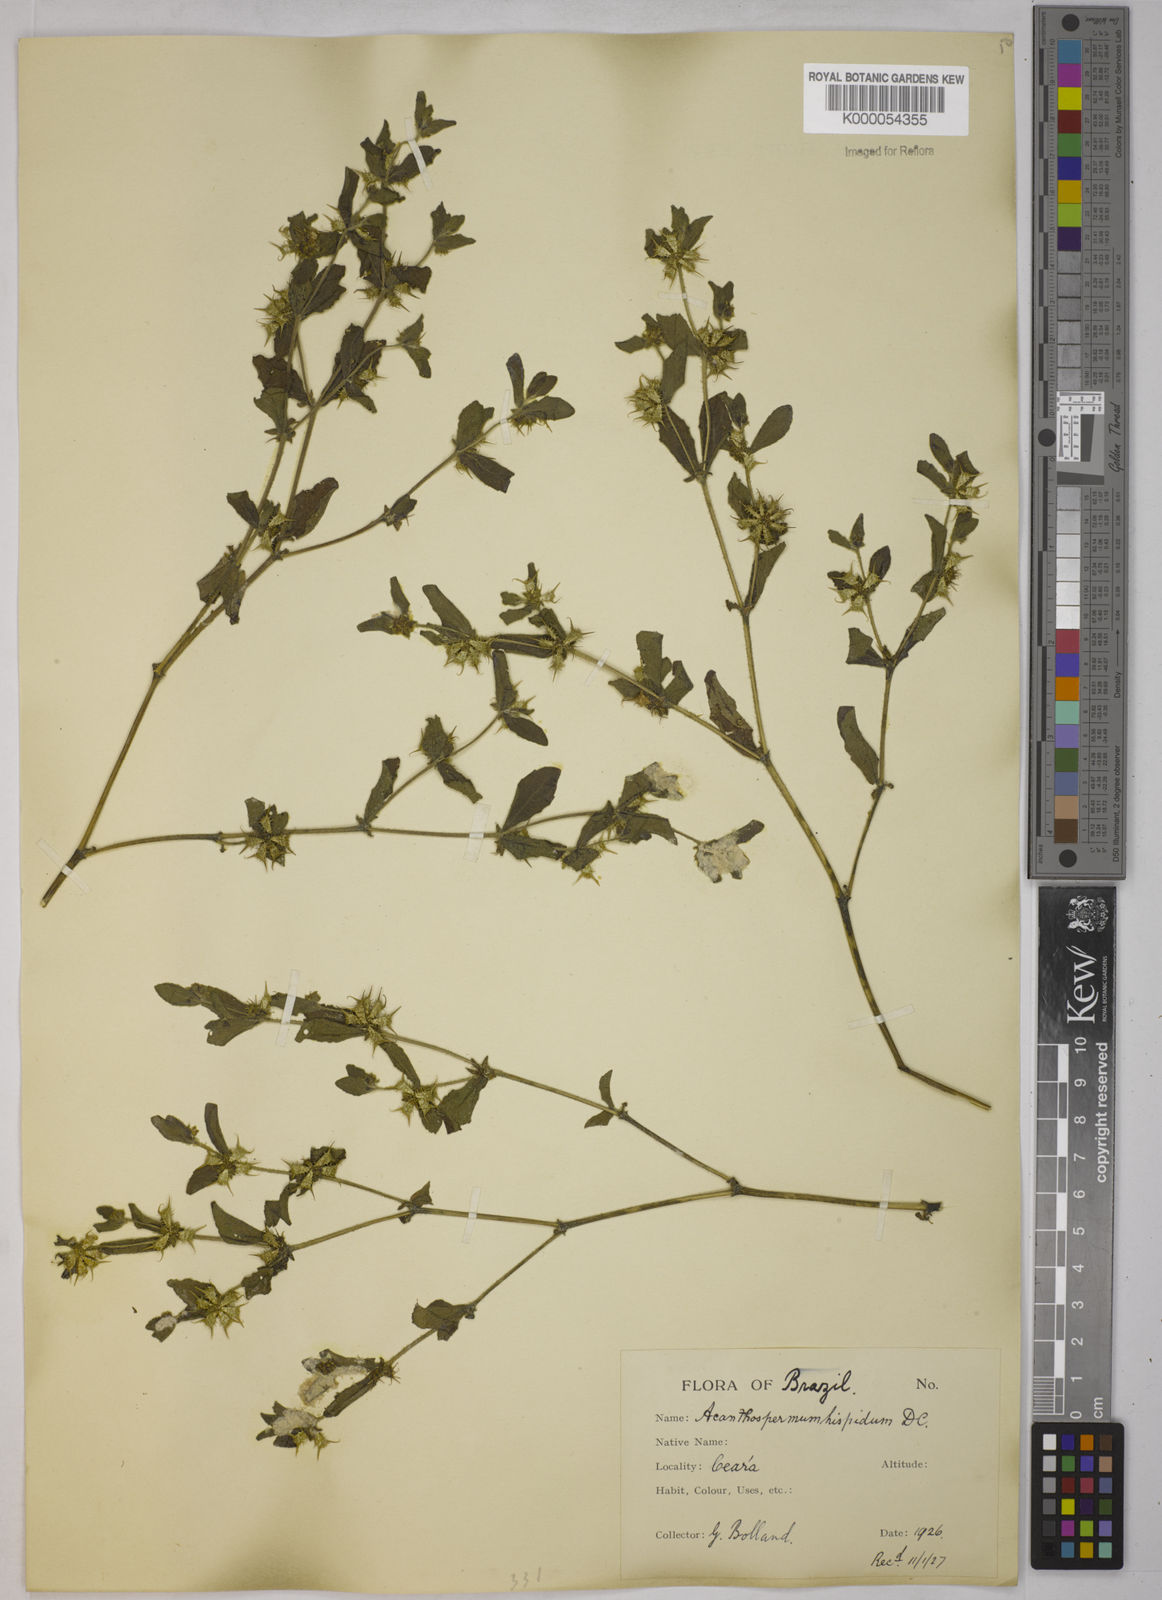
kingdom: Plantae
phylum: Tracheophyta
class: Magnoliopsida
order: Asterales
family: Asteraceae
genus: Acanthospermum
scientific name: Acanthospermum hispidum
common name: Hispid starbur
